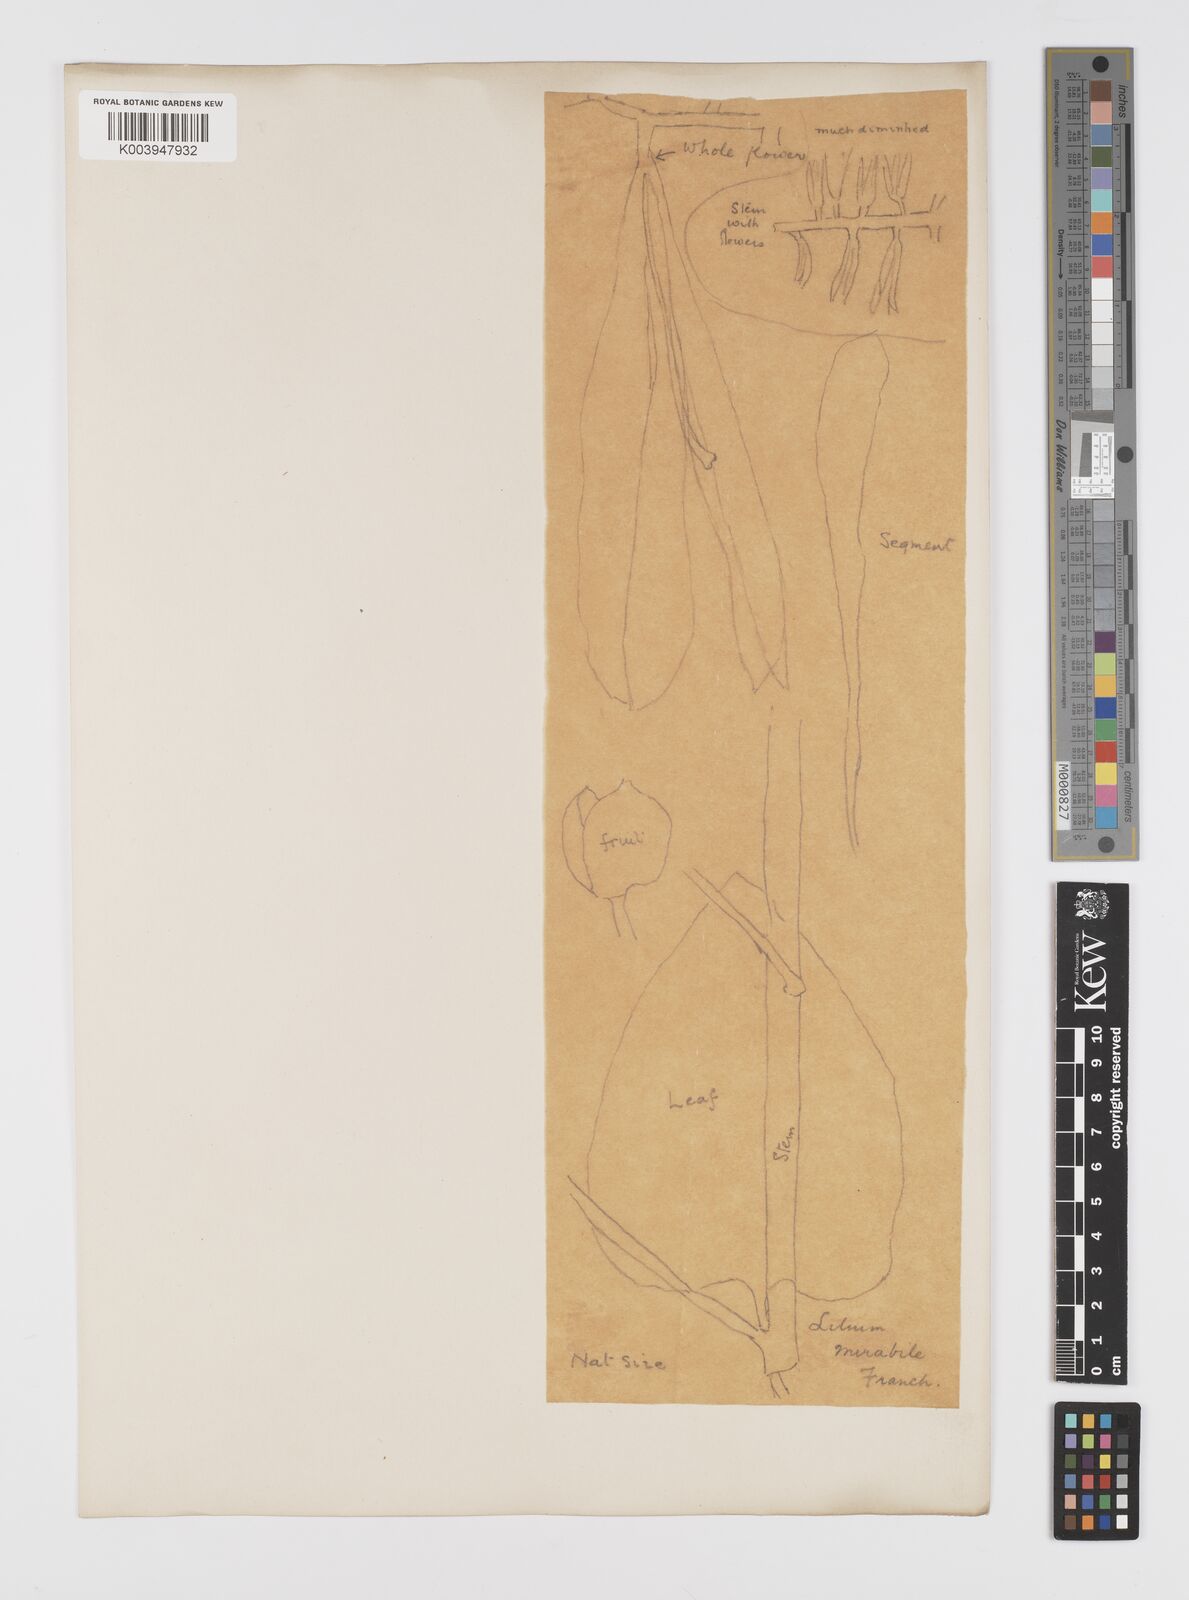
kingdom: Plantae
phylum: Tracheophyta
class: Liliopsida
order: Liliales
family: Liliaceae
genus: Cardiocrinum
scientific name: Cardiocrinum giganteum
